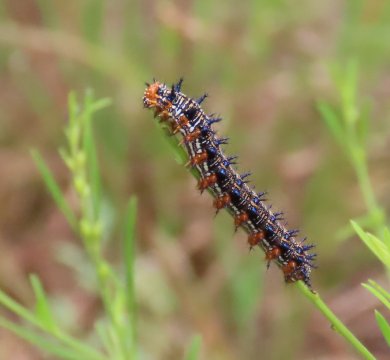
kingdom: Animalia
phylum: Arthropoda
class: Insecta
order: Lepidoptera
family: Nymphalidae
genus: Junonia
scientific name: Junonia coenia
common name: Common Buckeye
